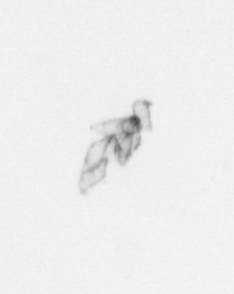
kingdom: Chromista
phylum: Ochrophyta
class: Bacillariophyceae
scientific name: Bacillariophyceae
